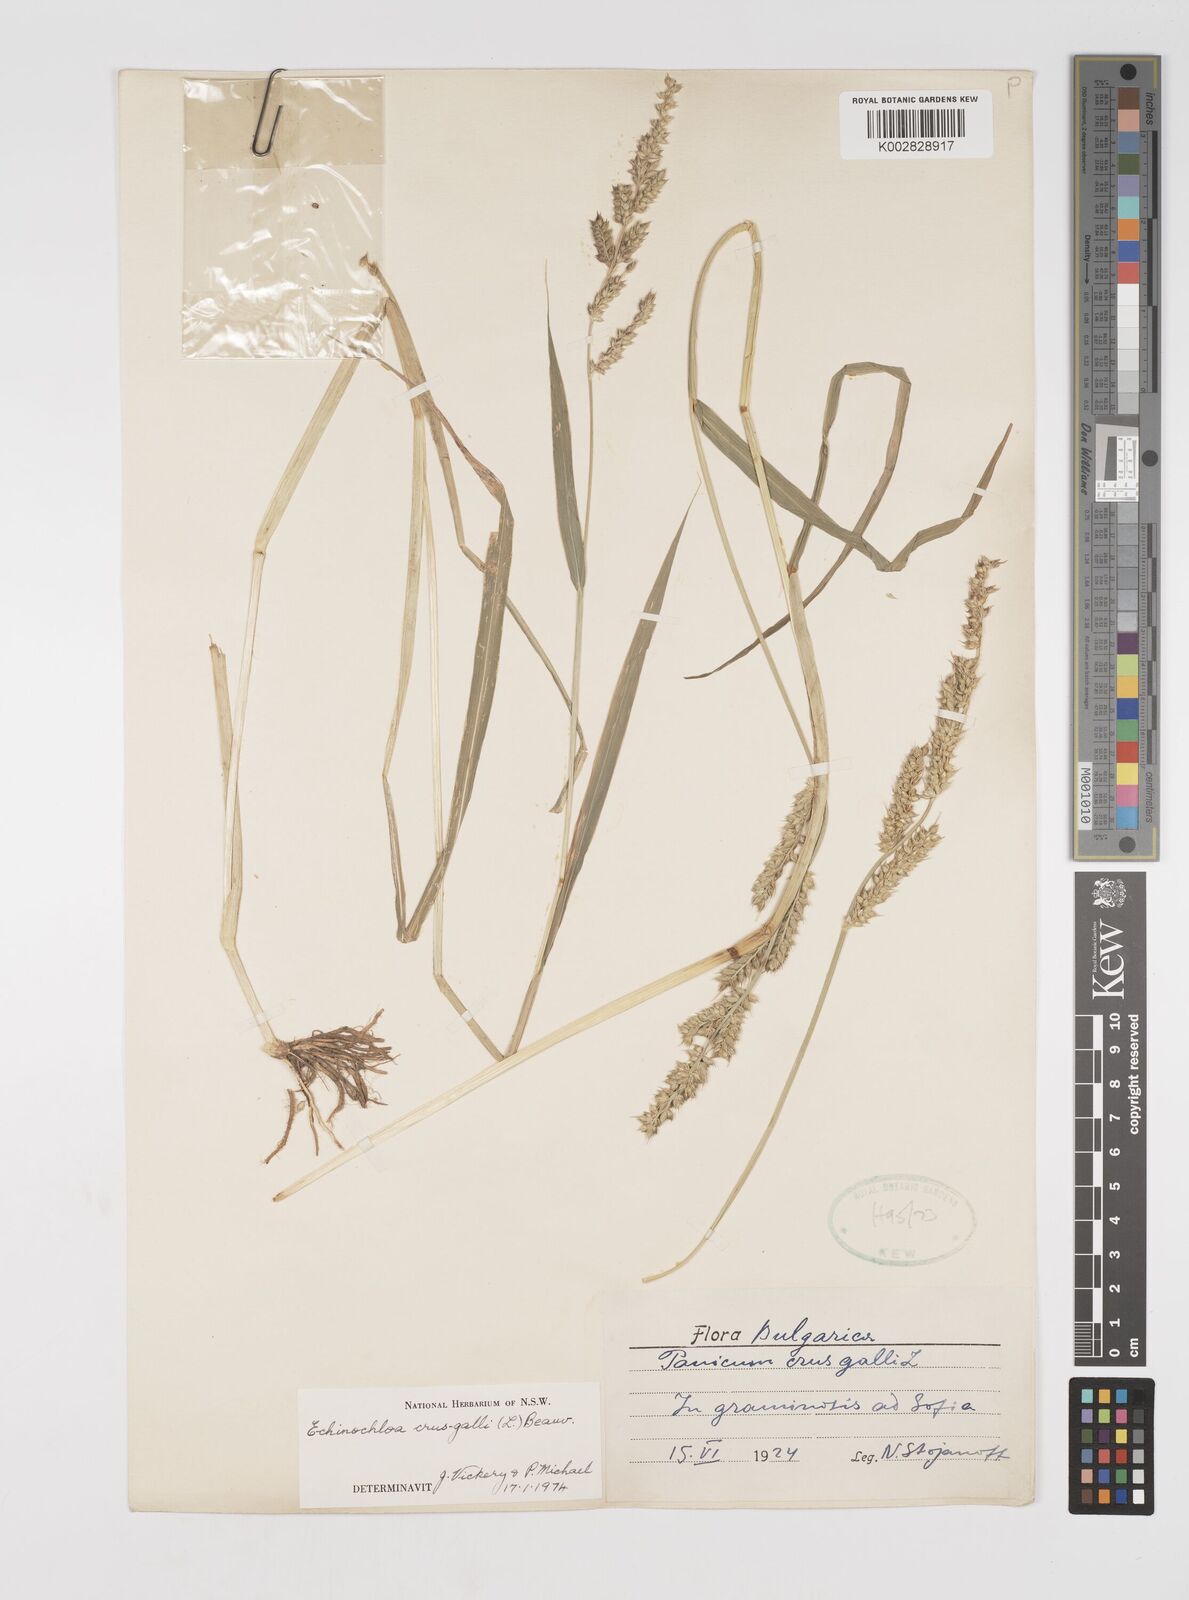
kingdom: Plantae
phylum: Tracheophyta
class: Liliopsida
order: Poales
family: Poaceae
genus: Echinochloa
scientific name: Echinochloa crus-galli
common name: Cockspur
